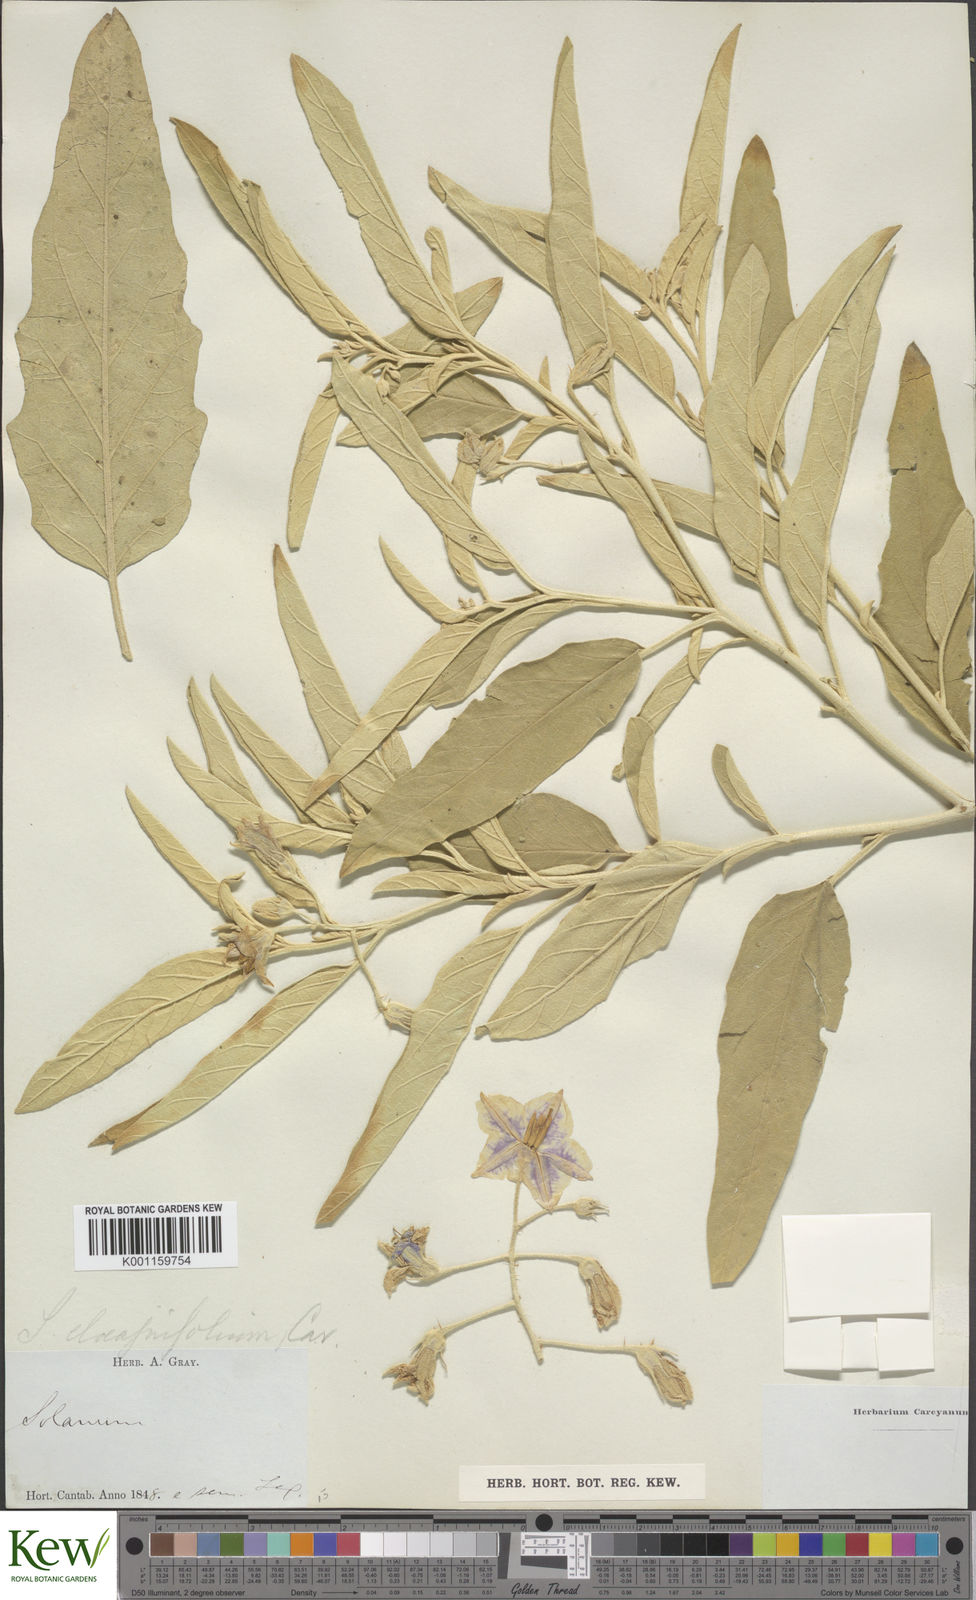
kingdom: Plantae
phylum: Tracheophyta
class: Magnoliopsida
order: Solanales
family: Solanaceae
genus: Solanum
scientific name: Solanum
